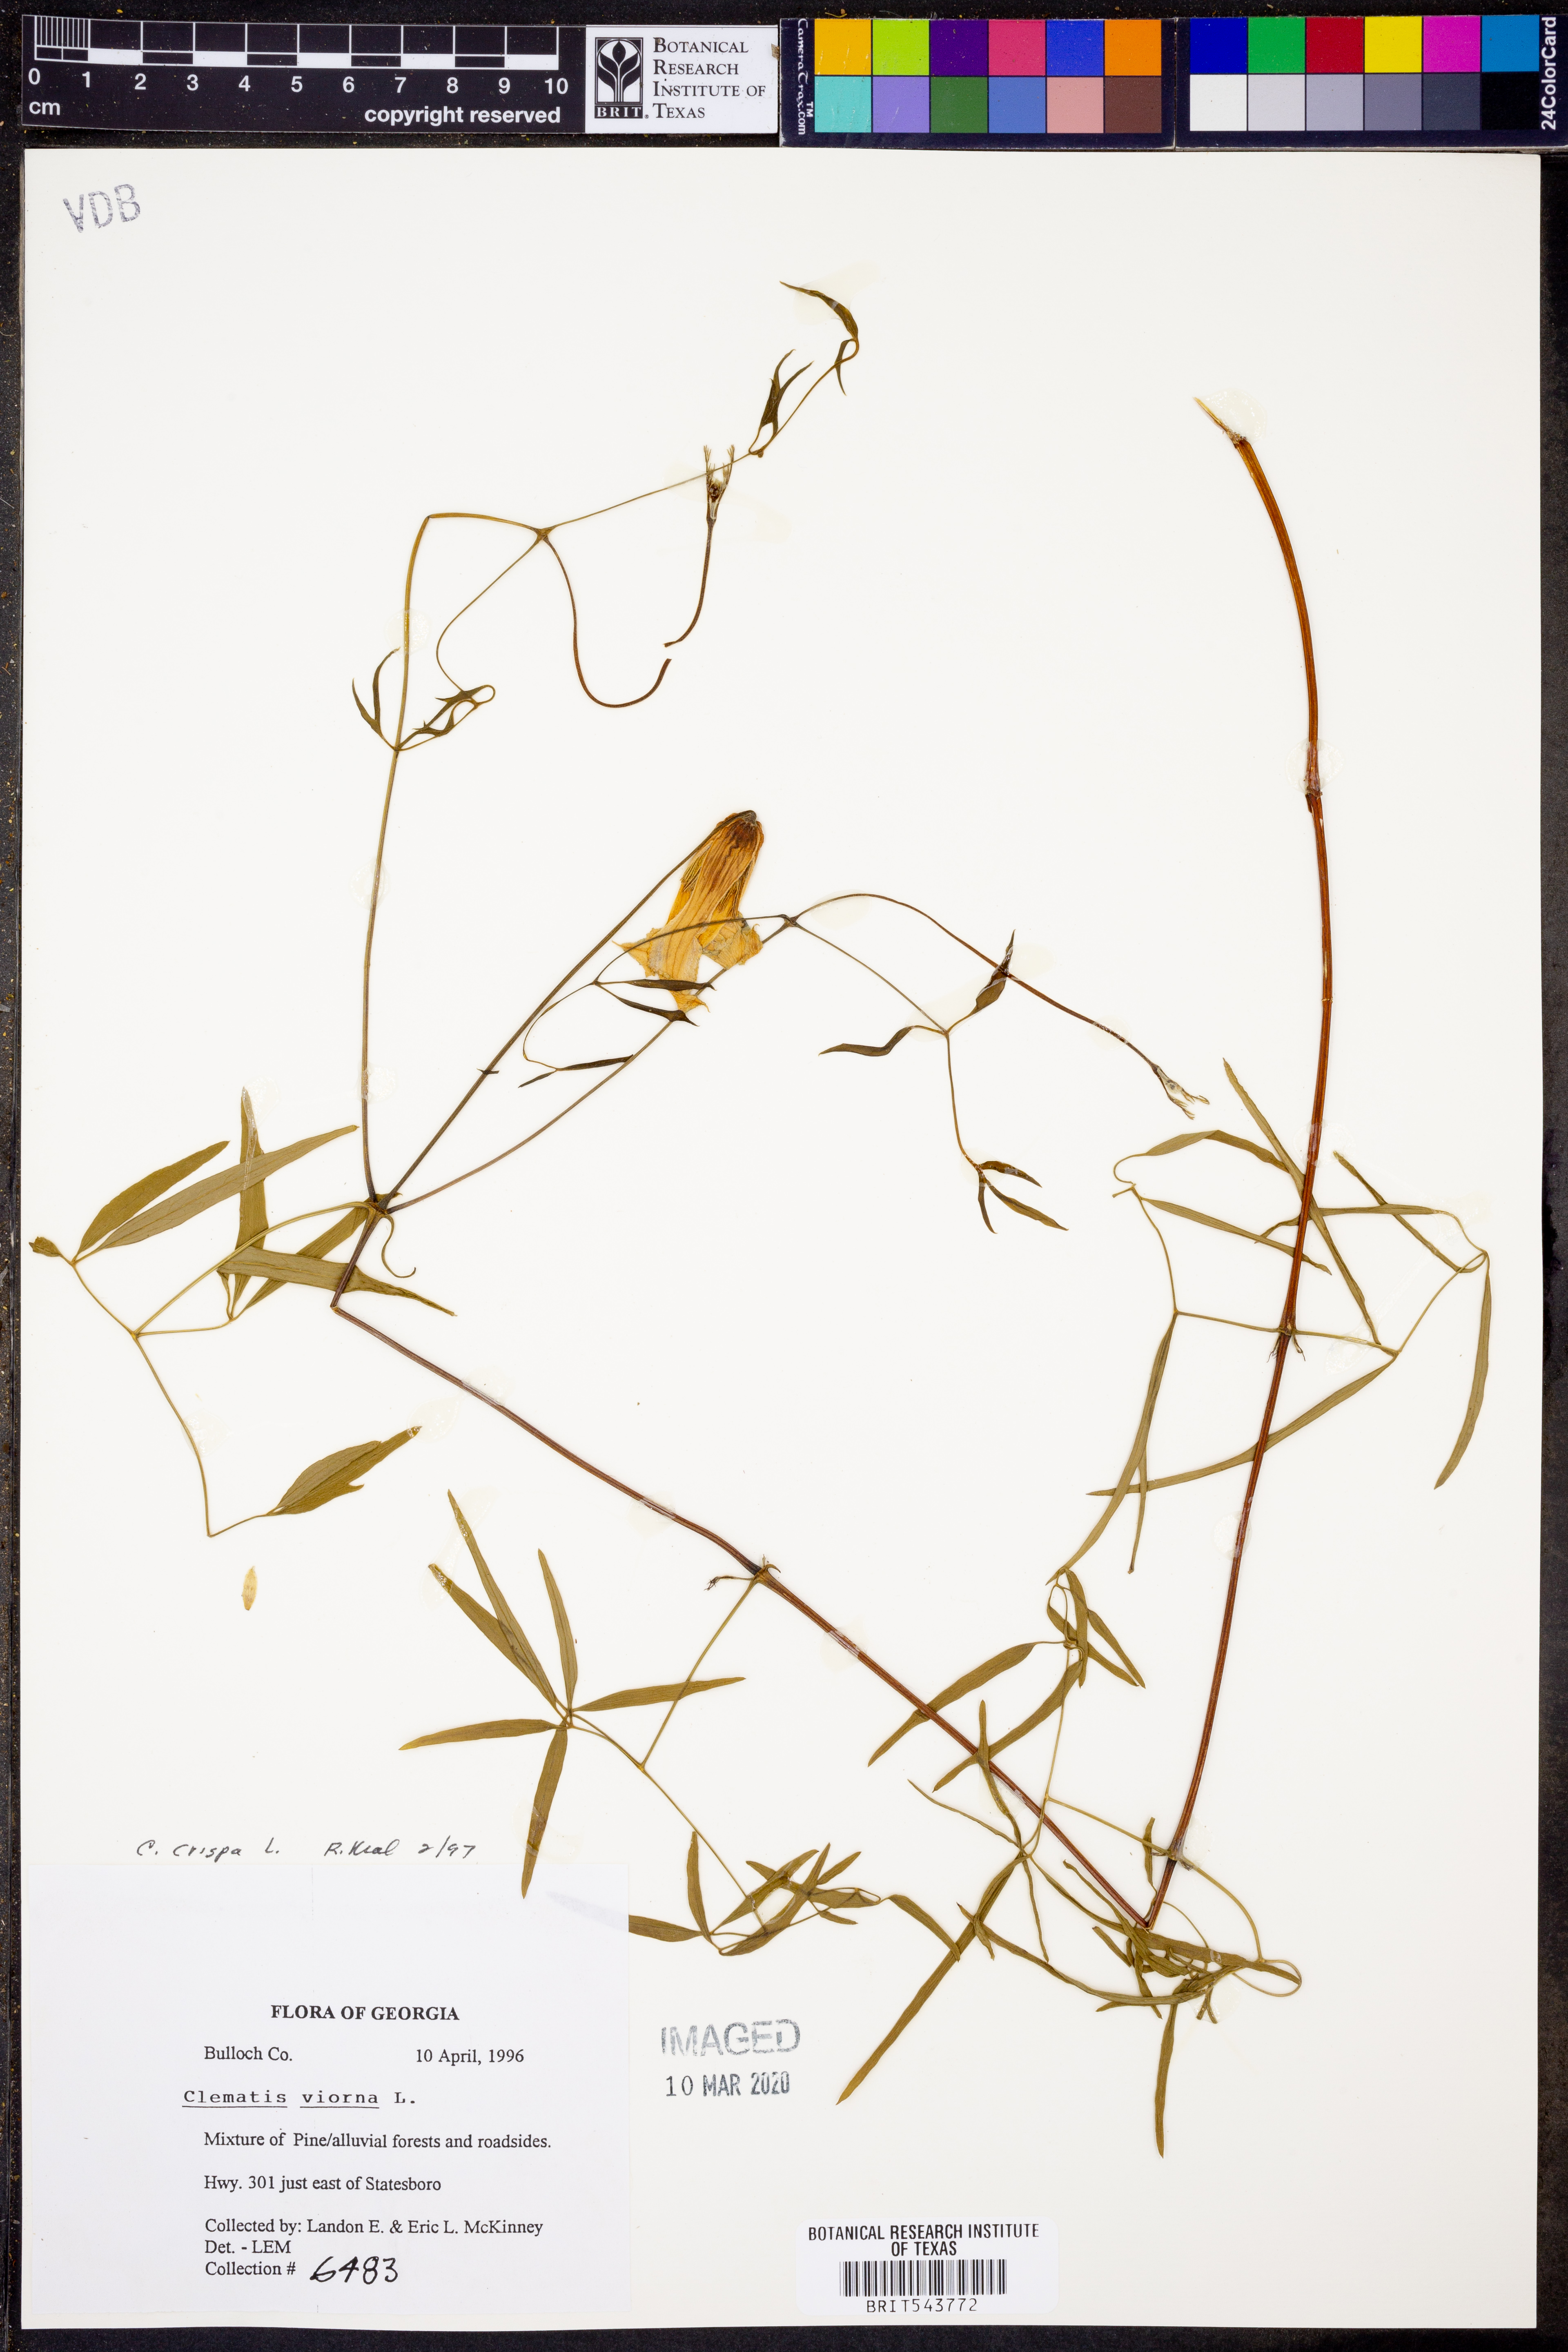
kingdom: Plantae
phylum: Tracheophyta
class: Magnoliopsida
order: Ranunculales
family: Ranunculaceae
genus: Clematis
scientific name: Clematis crispa
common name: Curly clematis
